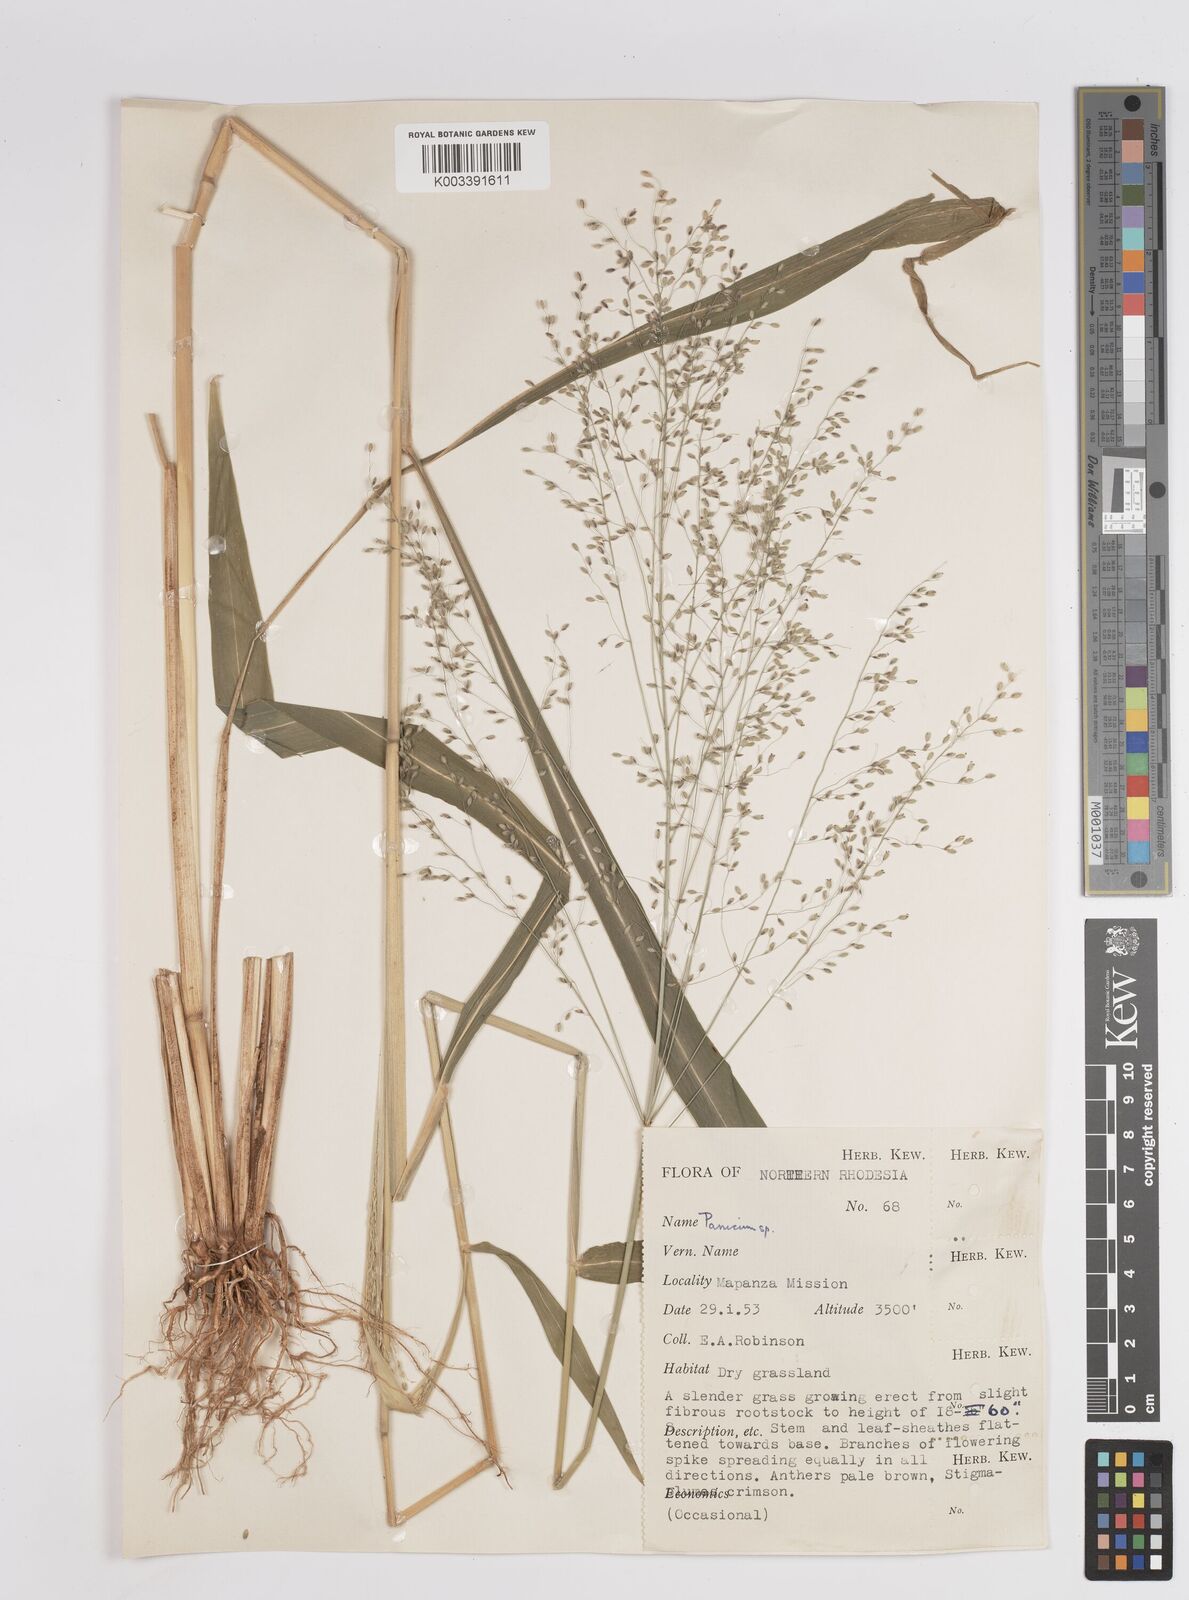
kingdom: Plantae
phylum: Tracheophyta
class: Liliopsida
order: Poales
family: Poaceae
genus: Megathyrsus
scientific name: Megathyrsus maximus
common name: Guineagrass
